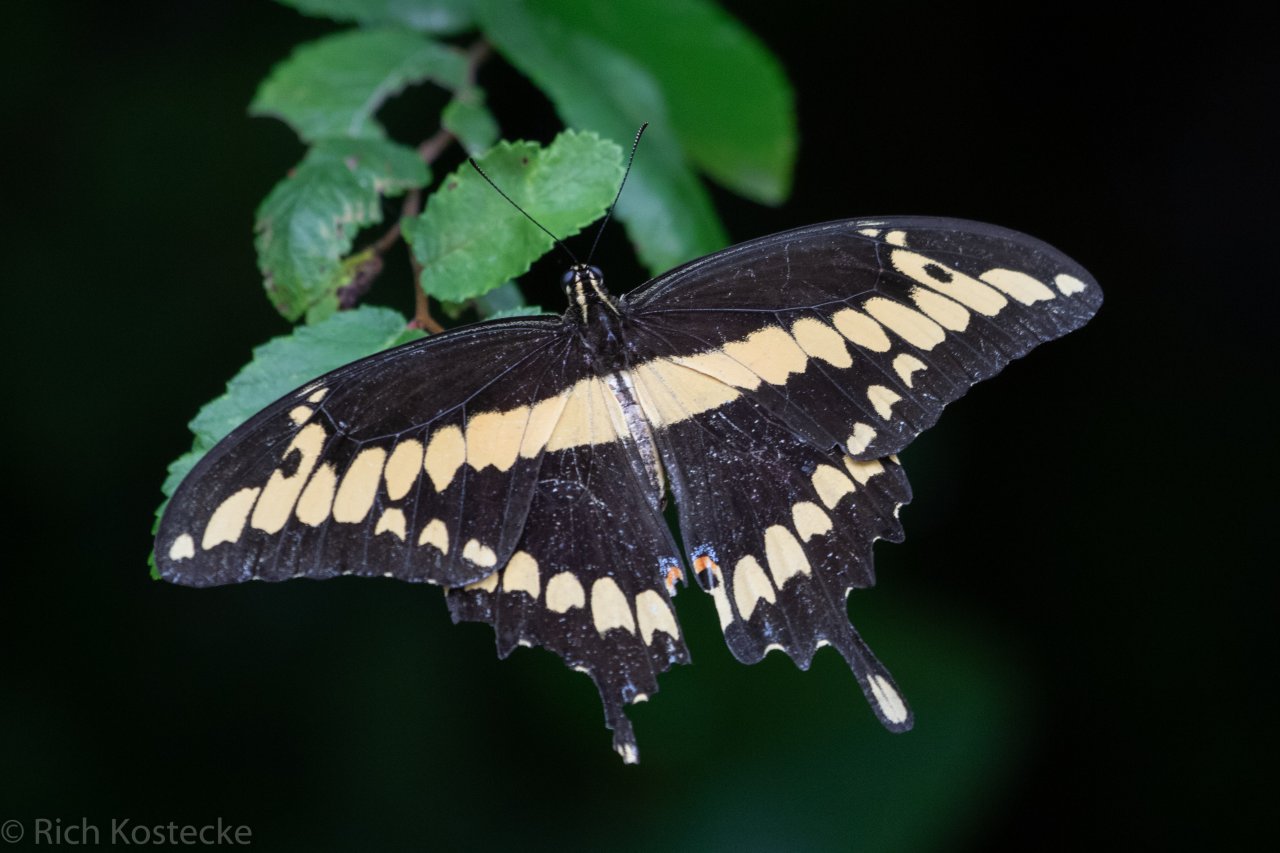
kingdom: Animalia
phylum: Arthropoda
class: Insecta
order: Lepidoptera
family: Papilionidae
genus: Papilio
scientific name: Papilio rumiko
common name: Western Giant Swallowtail
